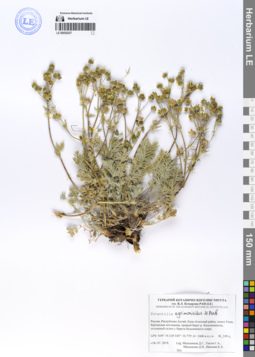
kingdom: Plantae
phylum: Tracheophyta
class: Magnoliopsida
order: Rosales
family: Rosaceae
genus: Potentilla
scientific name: Potentilla agrimonioides
